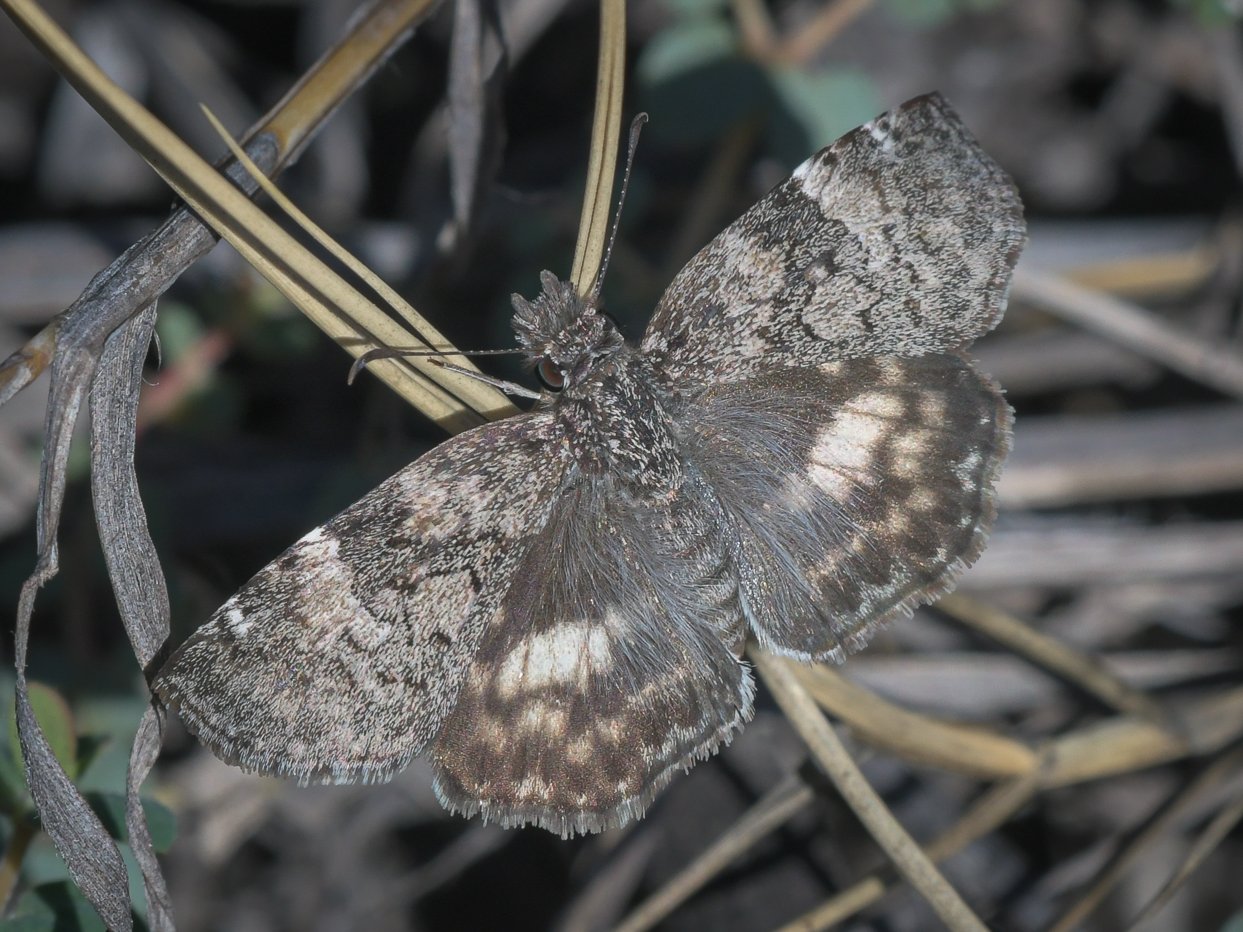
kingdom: Animalia
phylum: Arthropoda
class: Insecta
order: Lepidoptera
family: Hesperiidae
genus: Chiomara
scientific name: Chiomara asychis
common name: White-patched Skipper
